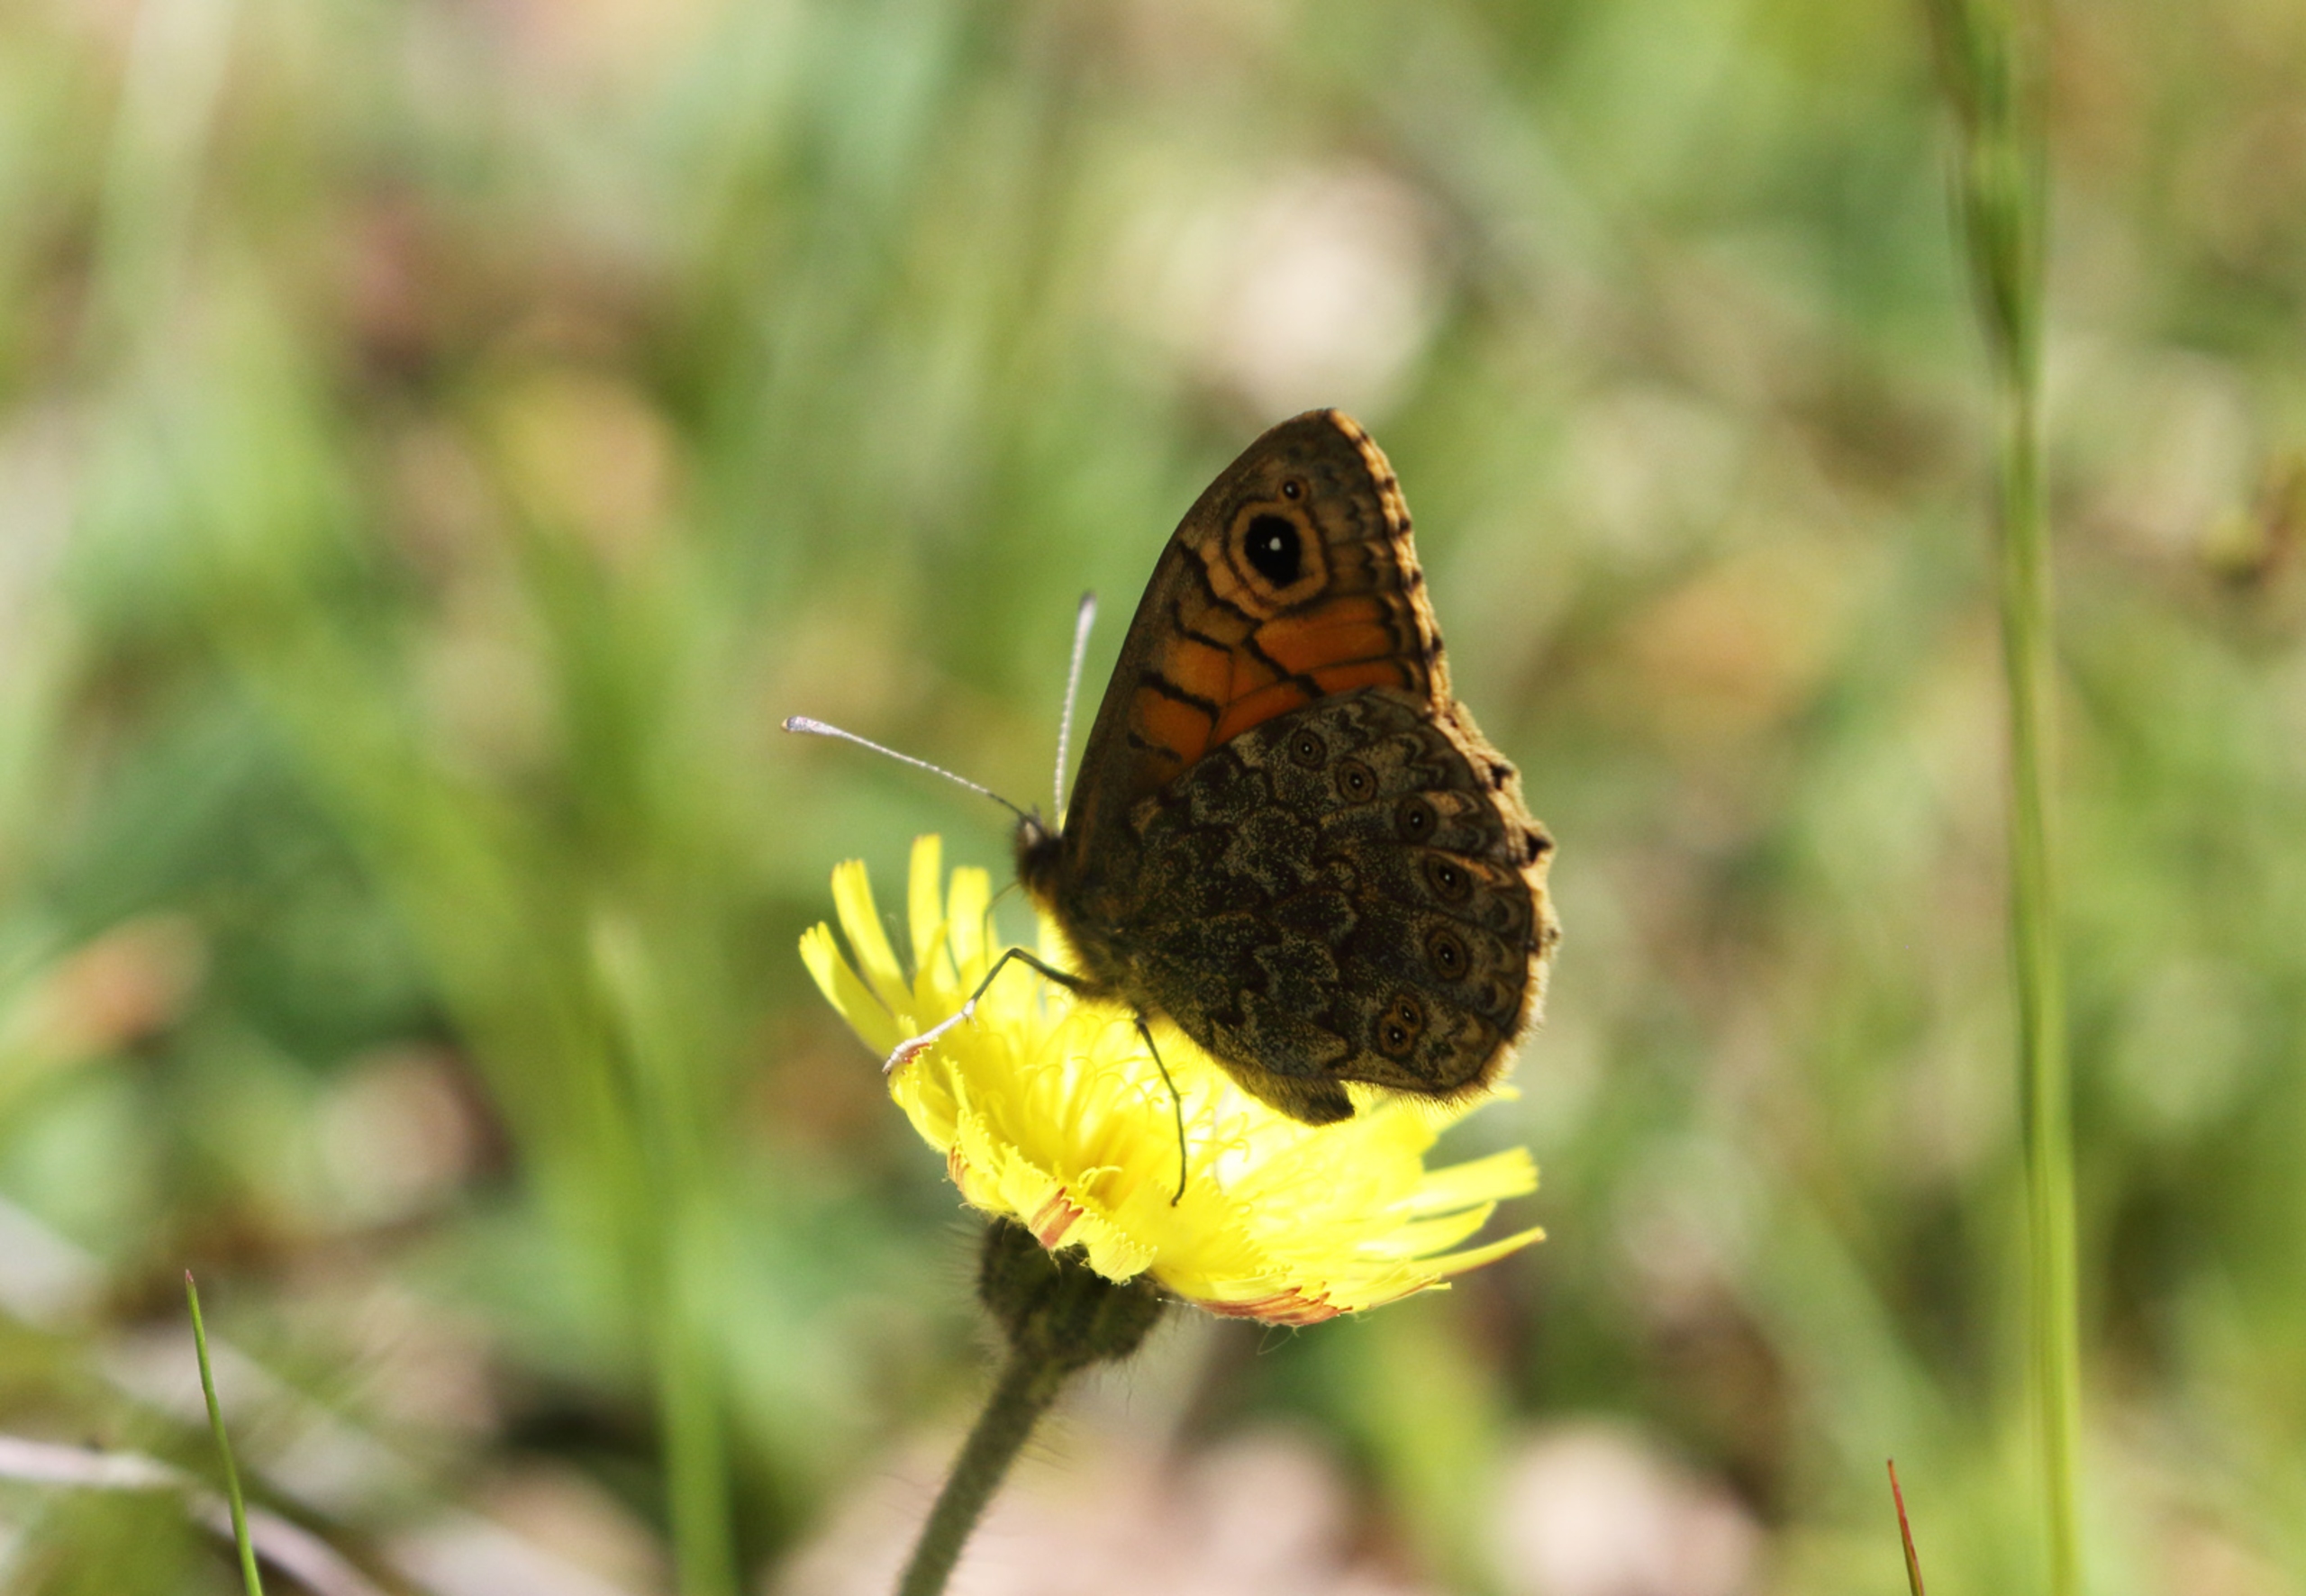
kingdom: Animalia
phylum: Arthropoda
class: Insecta
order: Lepidoptera
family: Nymphalidae
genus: Pararge
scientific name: Pararge Lasiommata megera
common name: Vejrandøje
